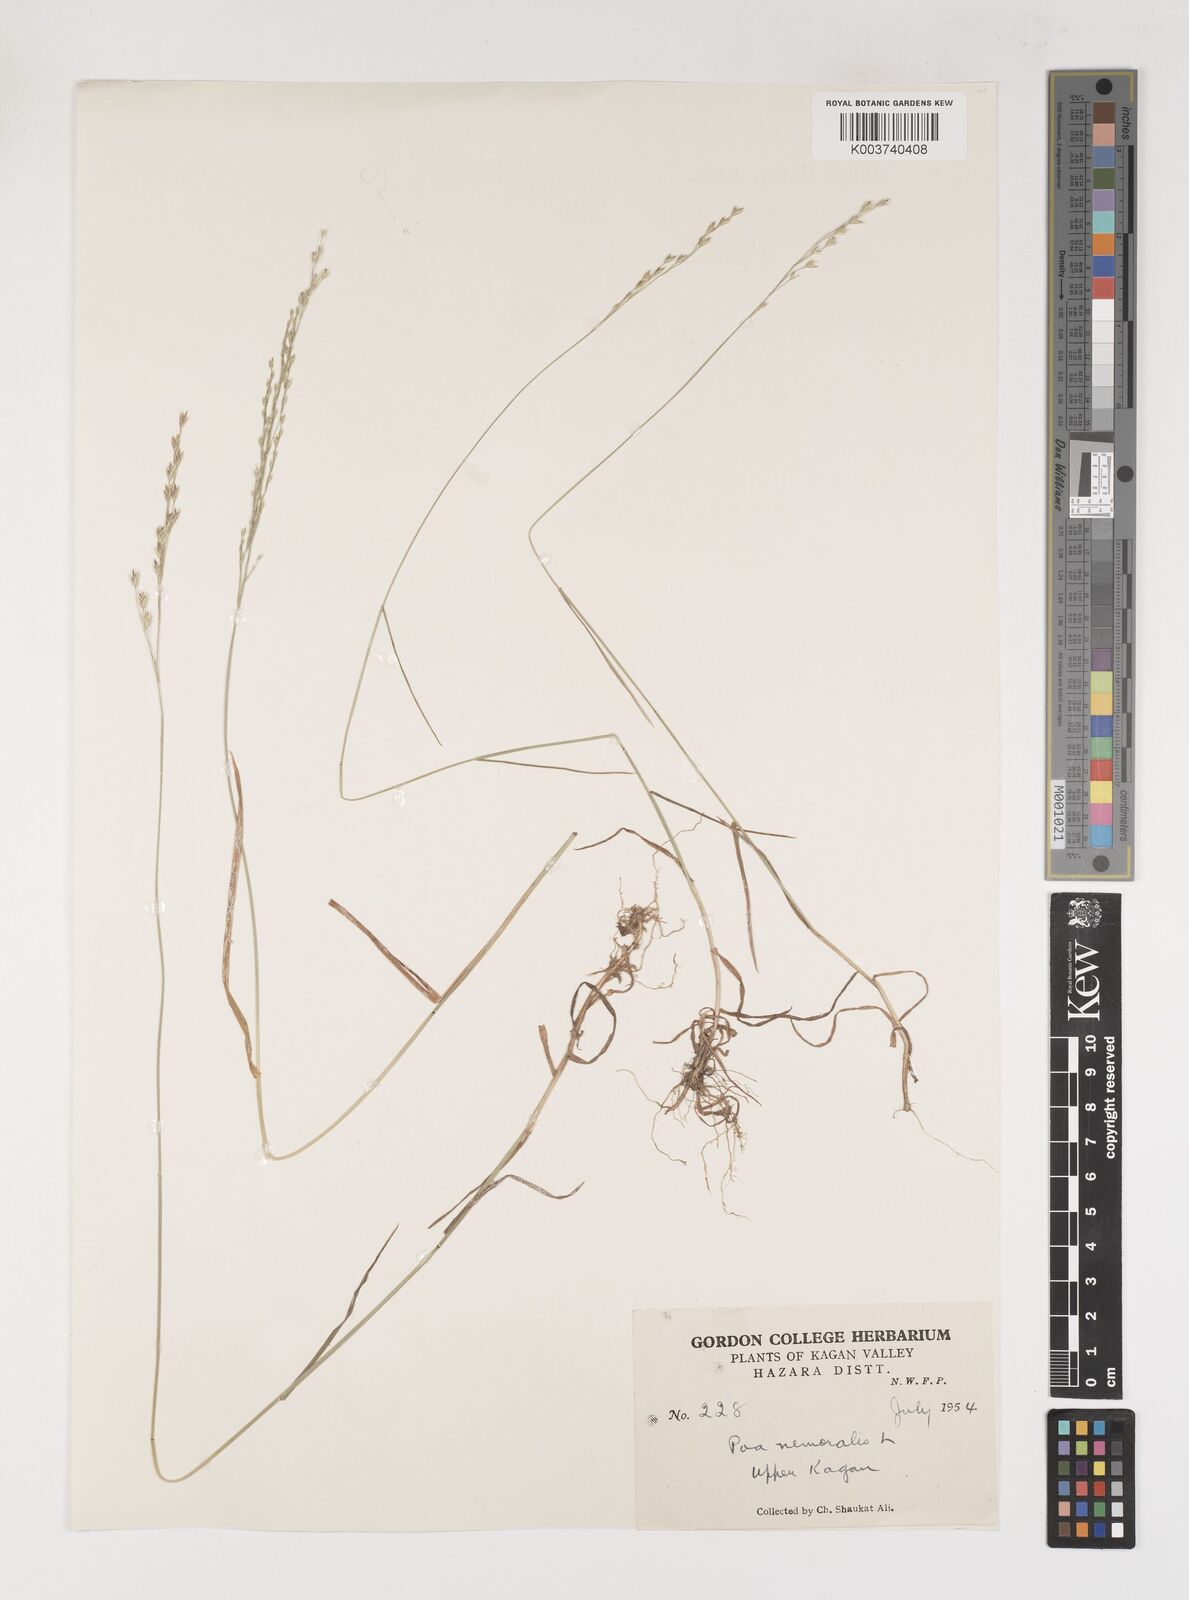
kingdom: Plantae
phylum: Tracheophyta
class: Liliopsida
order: Poales
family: Poaceae
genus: Poa
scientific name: Poa nemoralis
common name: Wood bluegrass
